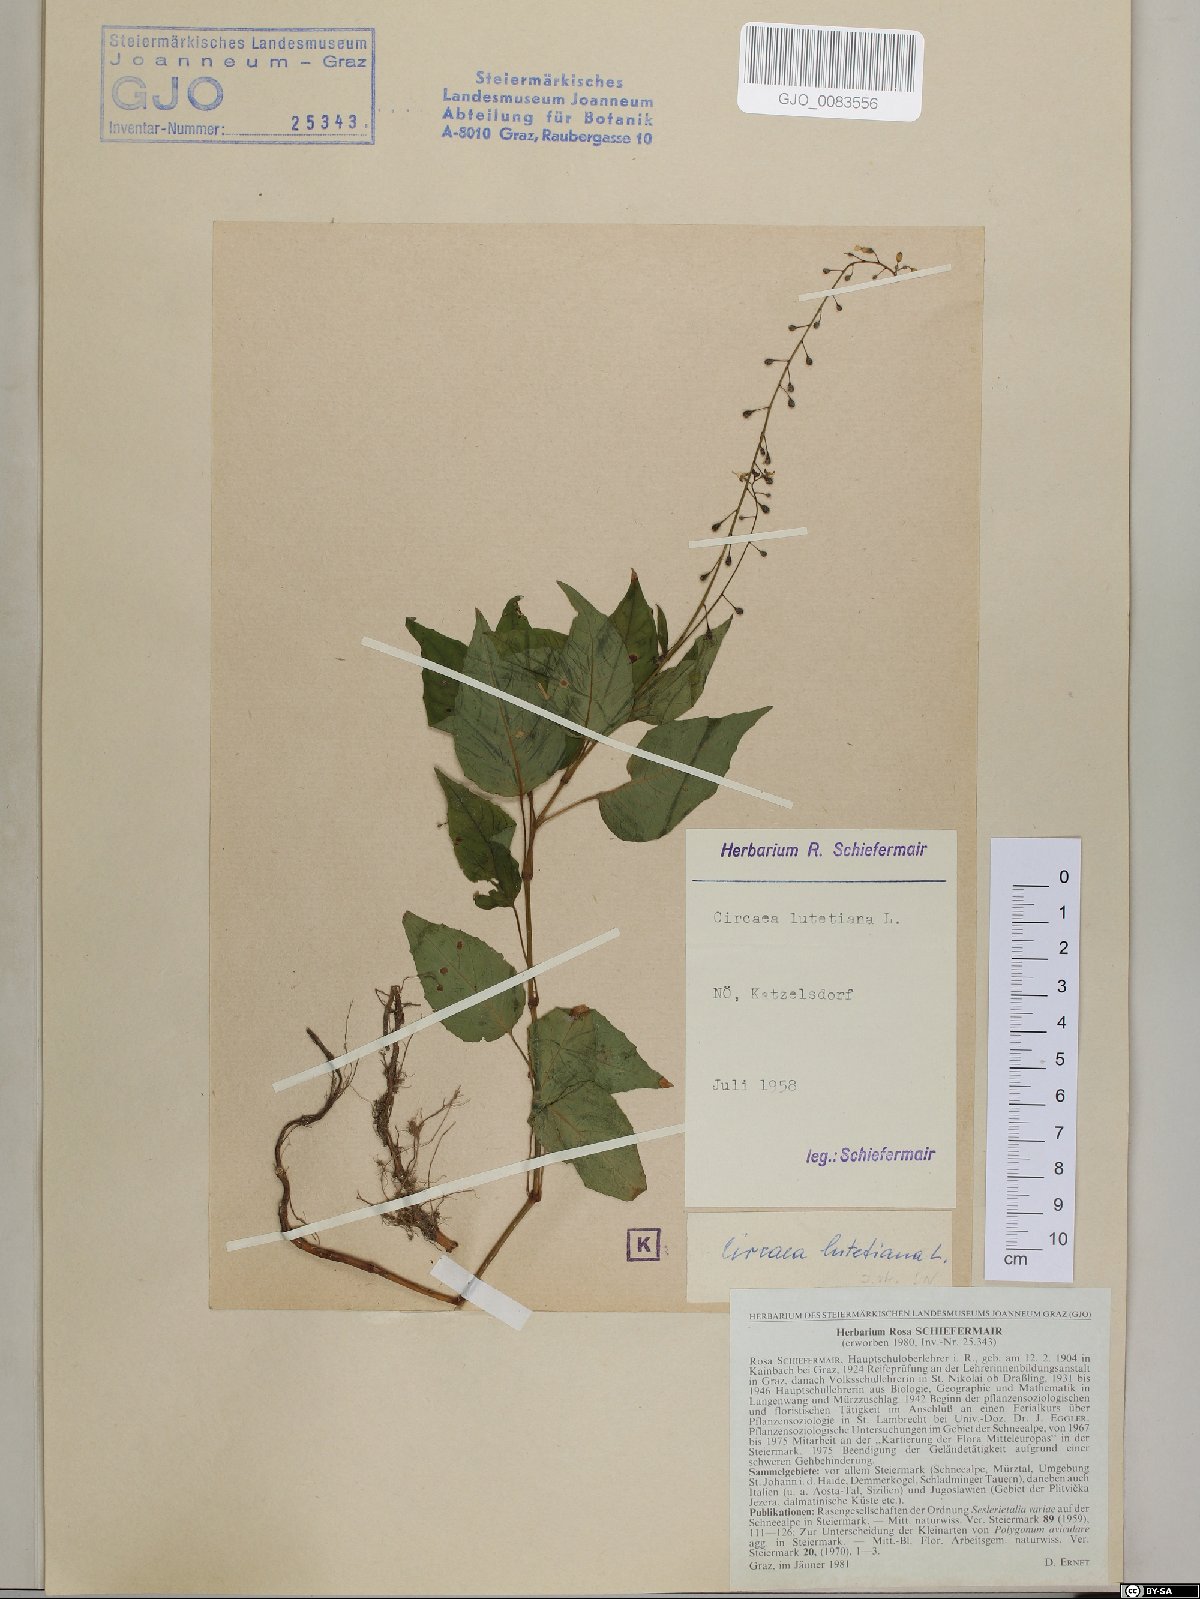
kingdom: Plantae
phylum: Tracheophyta
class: Magnoliopsida
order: Myrtales
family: Onagraceae
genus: Circaea
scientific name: Circaea lutetiana
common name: Enchanter's-nightshade
